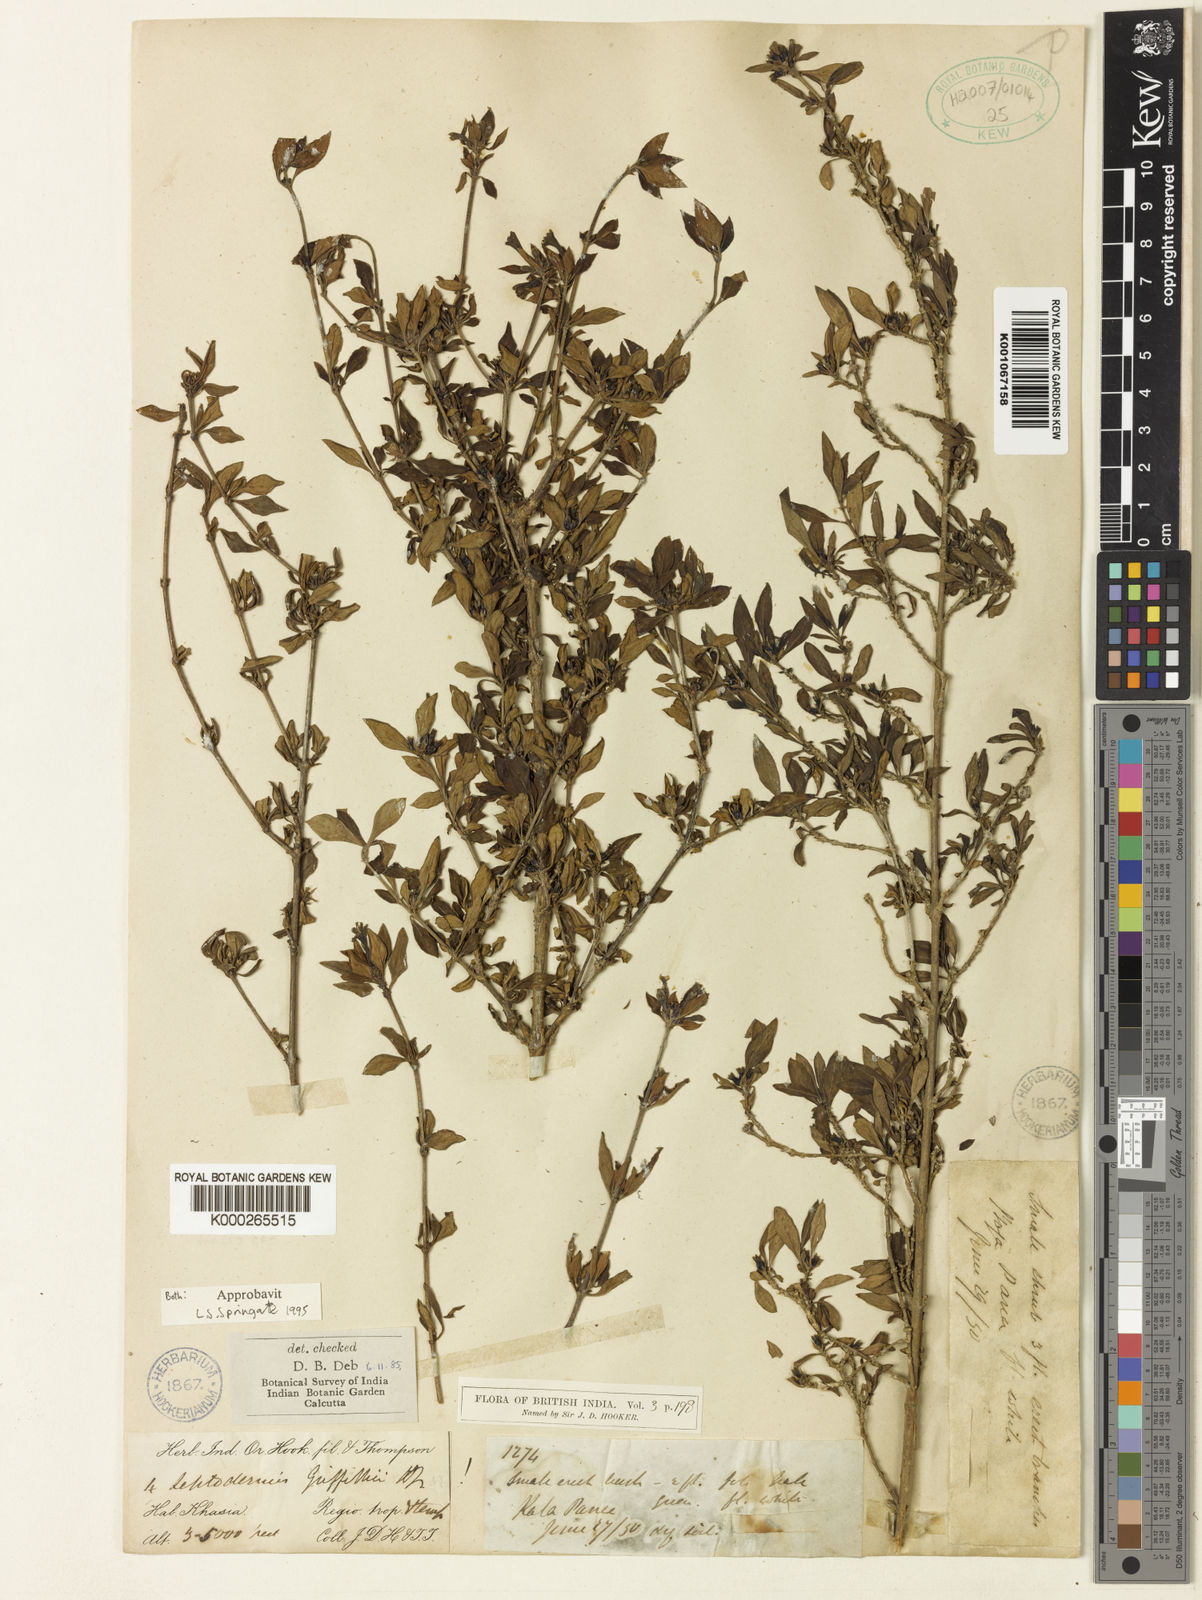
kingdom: Plantae
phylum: Tracheophyta
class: Magnoliopsida
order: Gentianales
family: Rubiaceae
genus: Leptodermis
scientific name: Leptodermis griffithii
